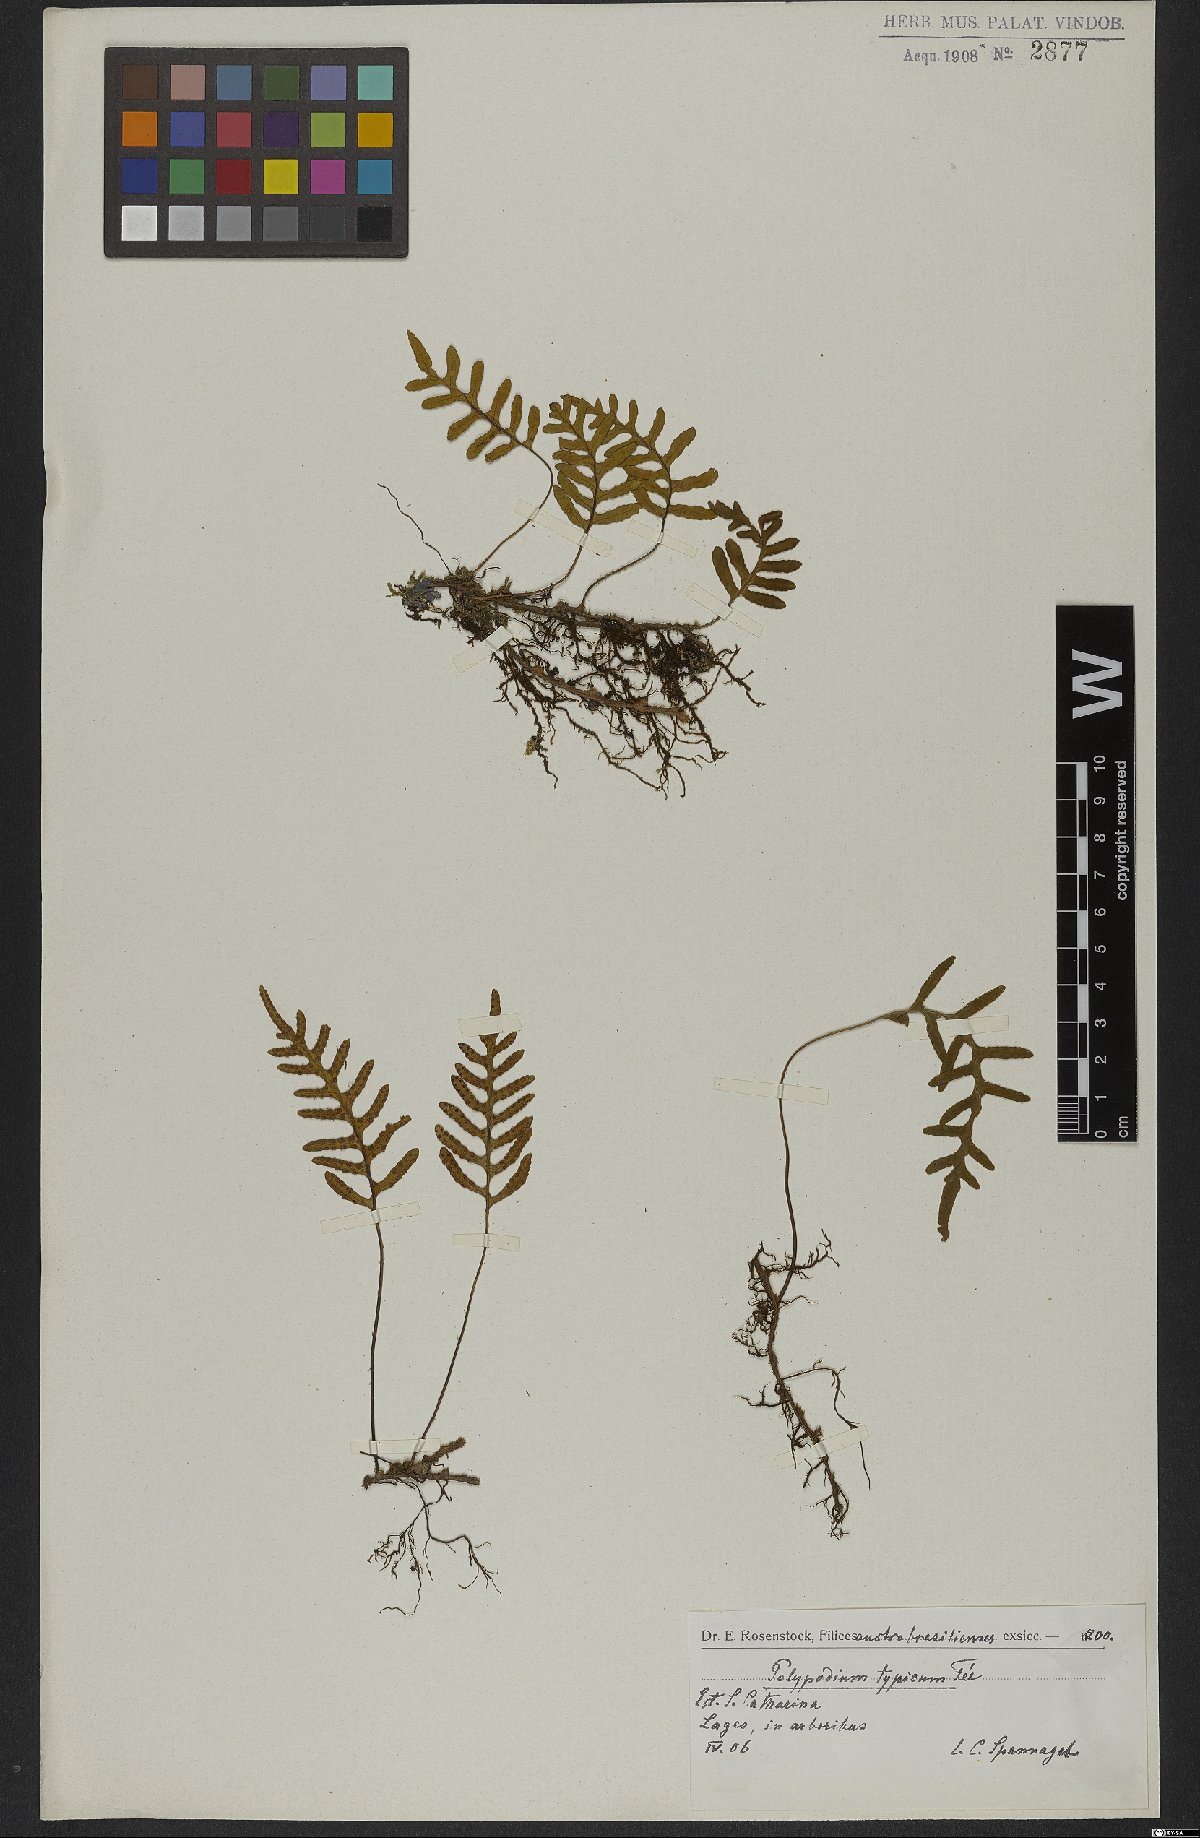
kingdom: Plantae
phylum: Tracheophyta
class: Polypodiopsida
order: Polypodiales
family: Polypodiaceae
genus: Pleopeltis
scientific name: Pleopeltis pleopeltidis
